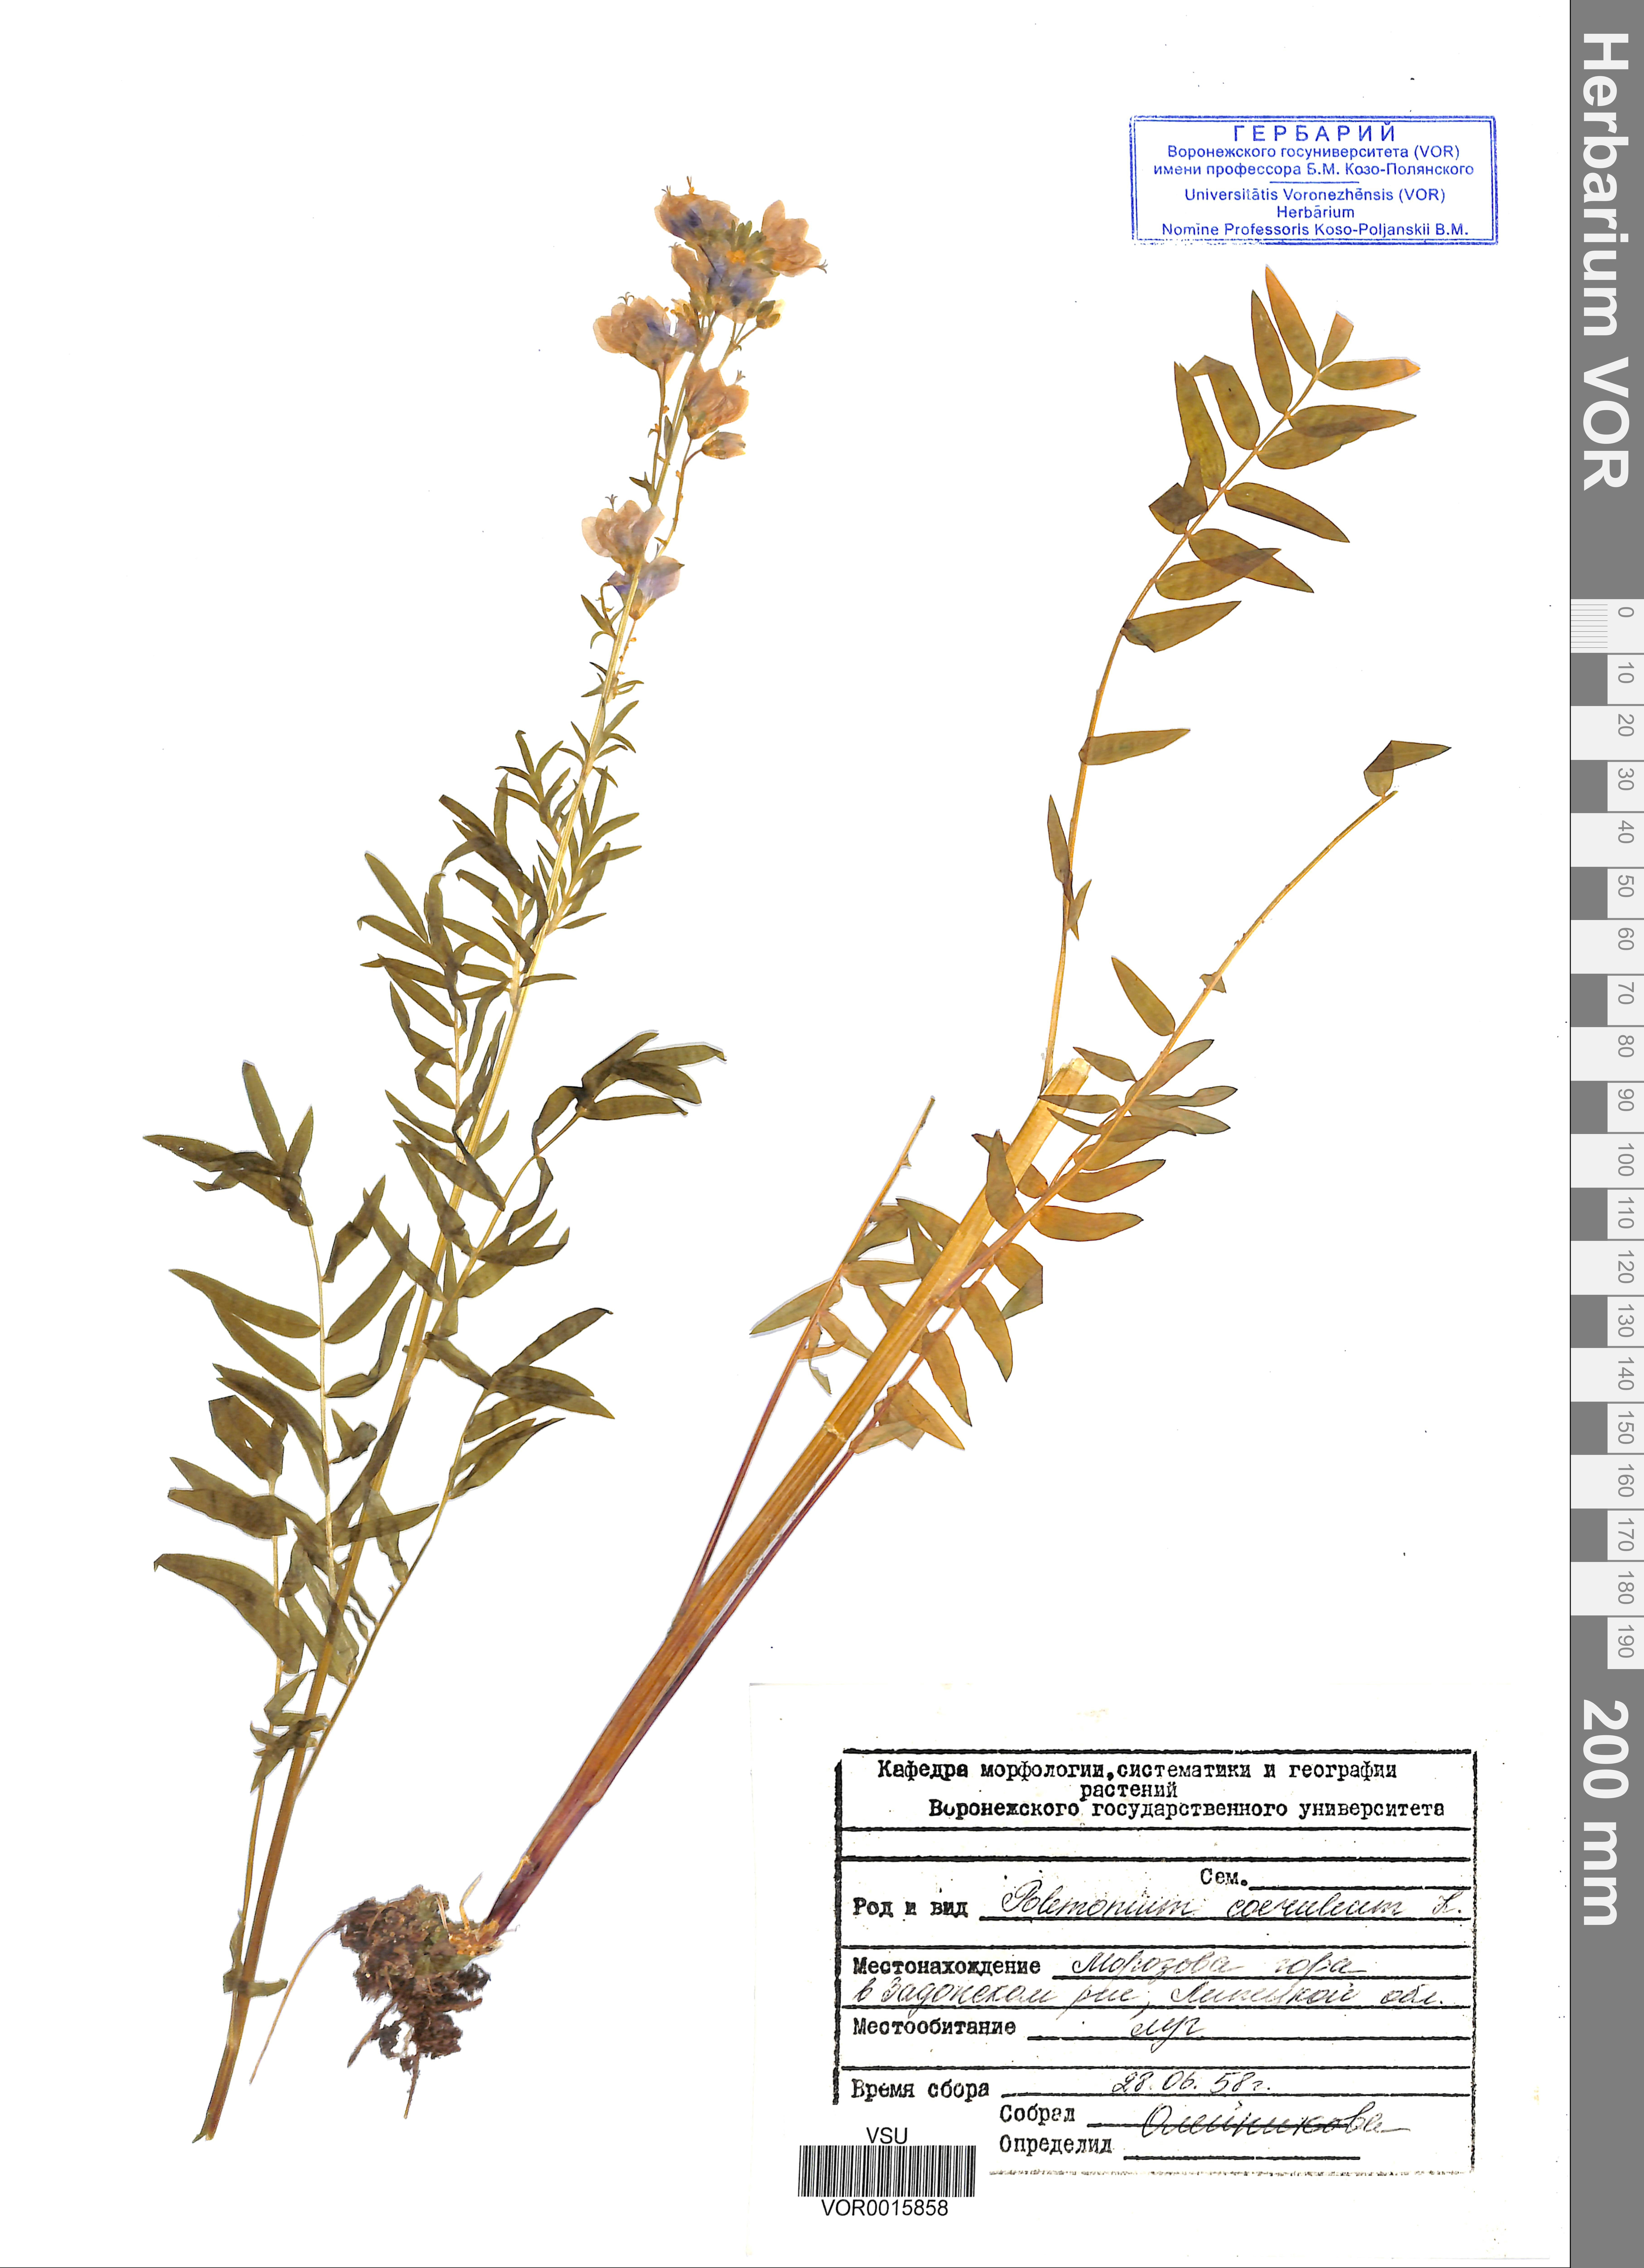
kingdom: Plantae
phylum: Tracheophyta
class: Magnoliopsida
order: Ericales
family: Polemoniaceae
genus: Polemonium
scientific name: Polemonium caeruleum
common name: Jacob's-ladder
